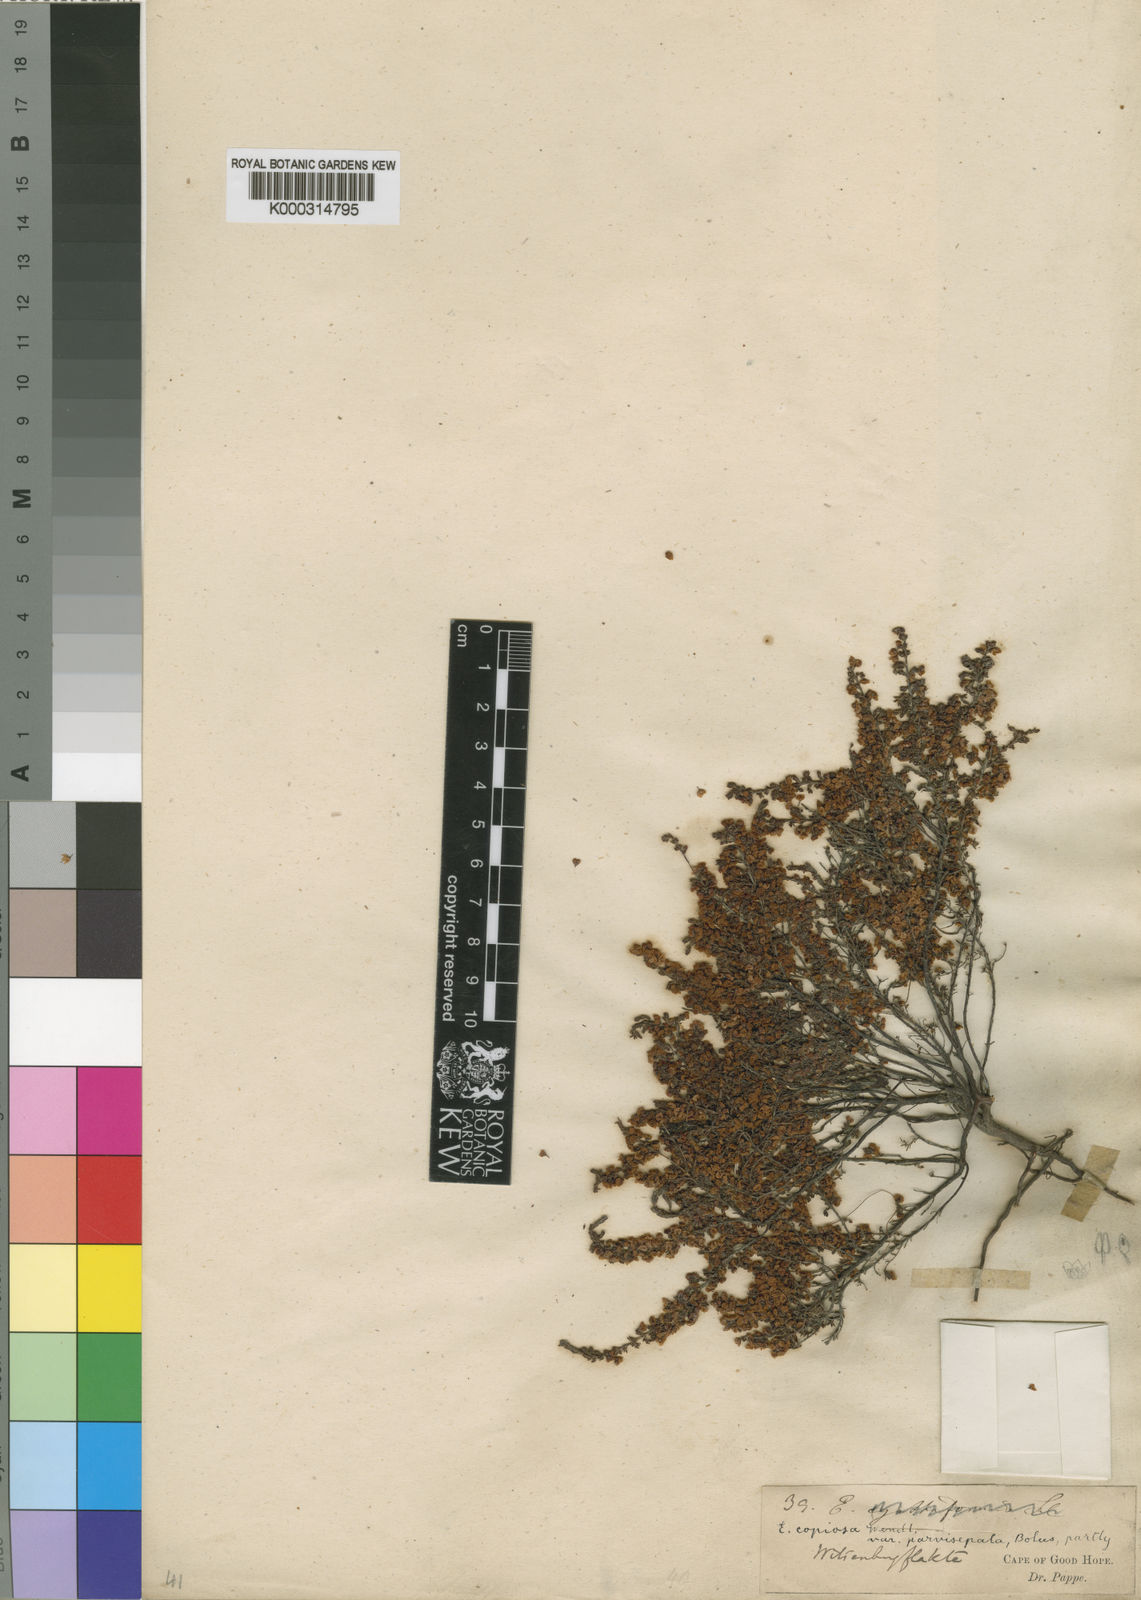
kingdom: Plantae
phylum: Tracheophyta
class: Magnoliopsida
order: Ericales
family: Ericaceae
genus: Erica
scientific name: Erica copiosa
